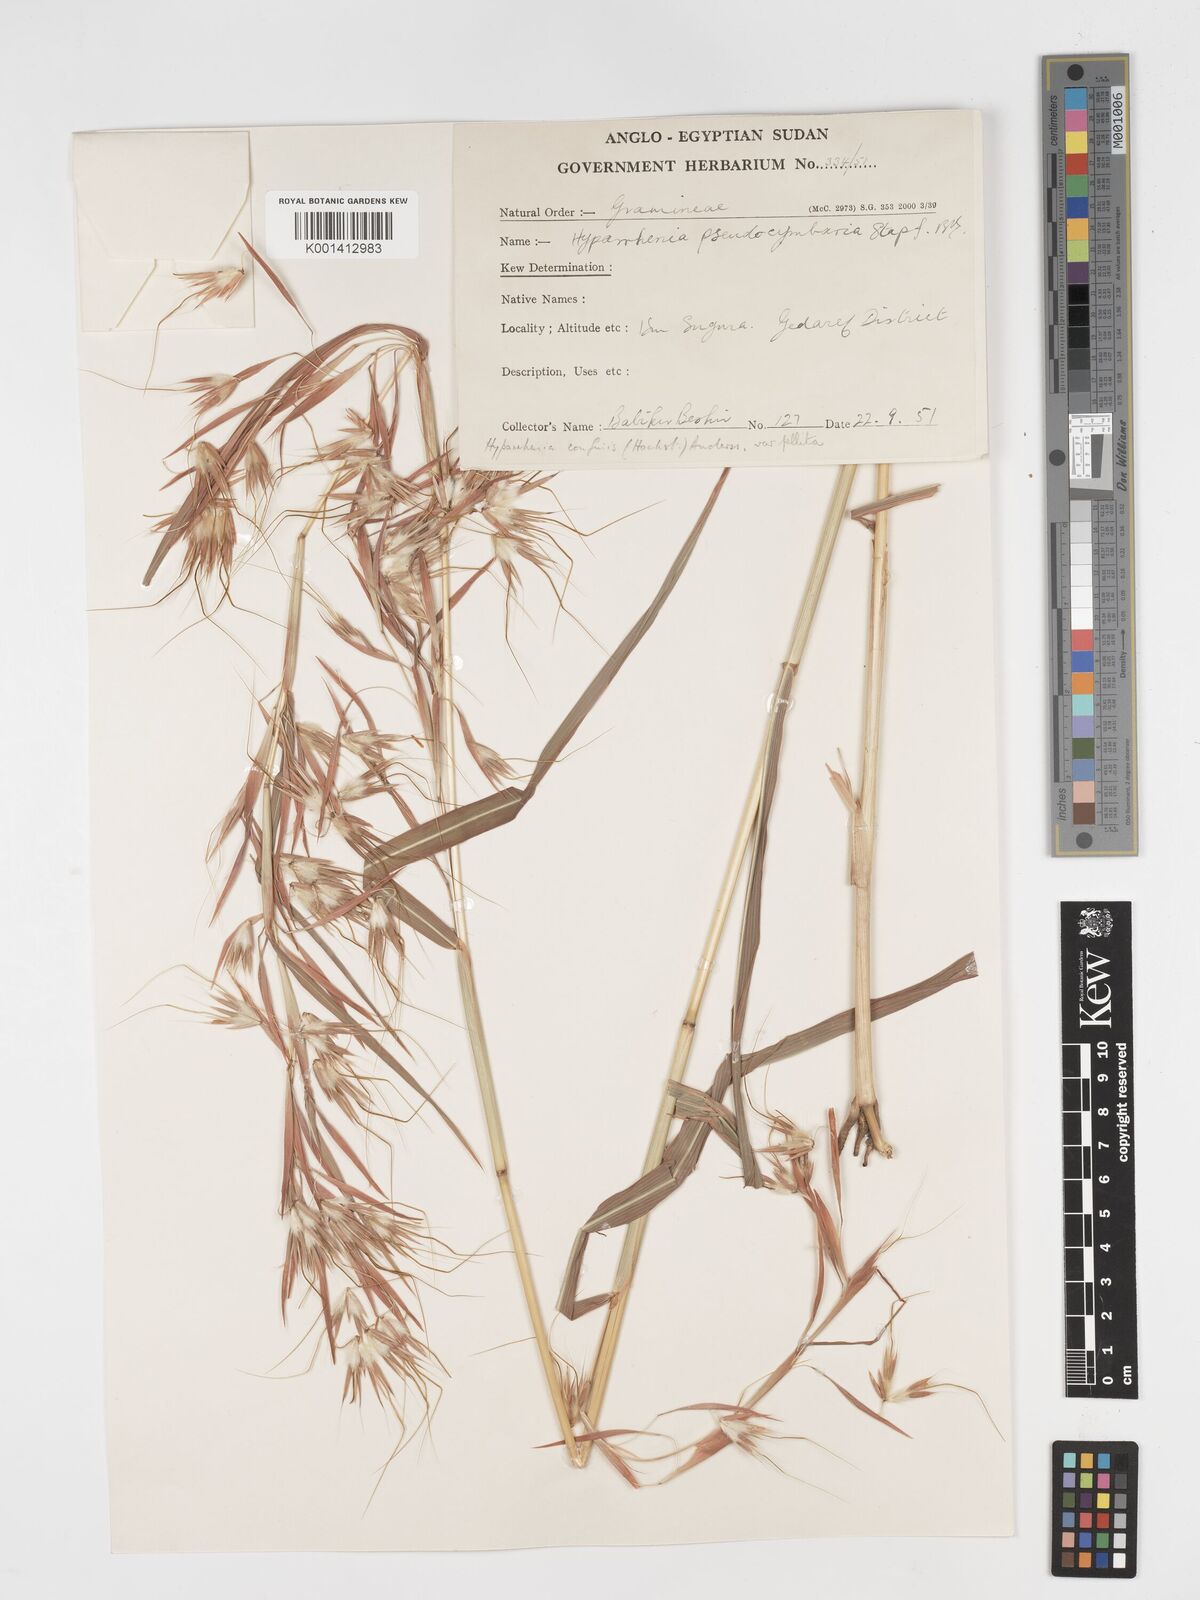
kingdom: Plantae
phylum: Tracheophyta
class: Liliopsida
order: Poales
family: Poaceae
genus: Hyparrhenia
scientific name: Hyparrhenia confinis
